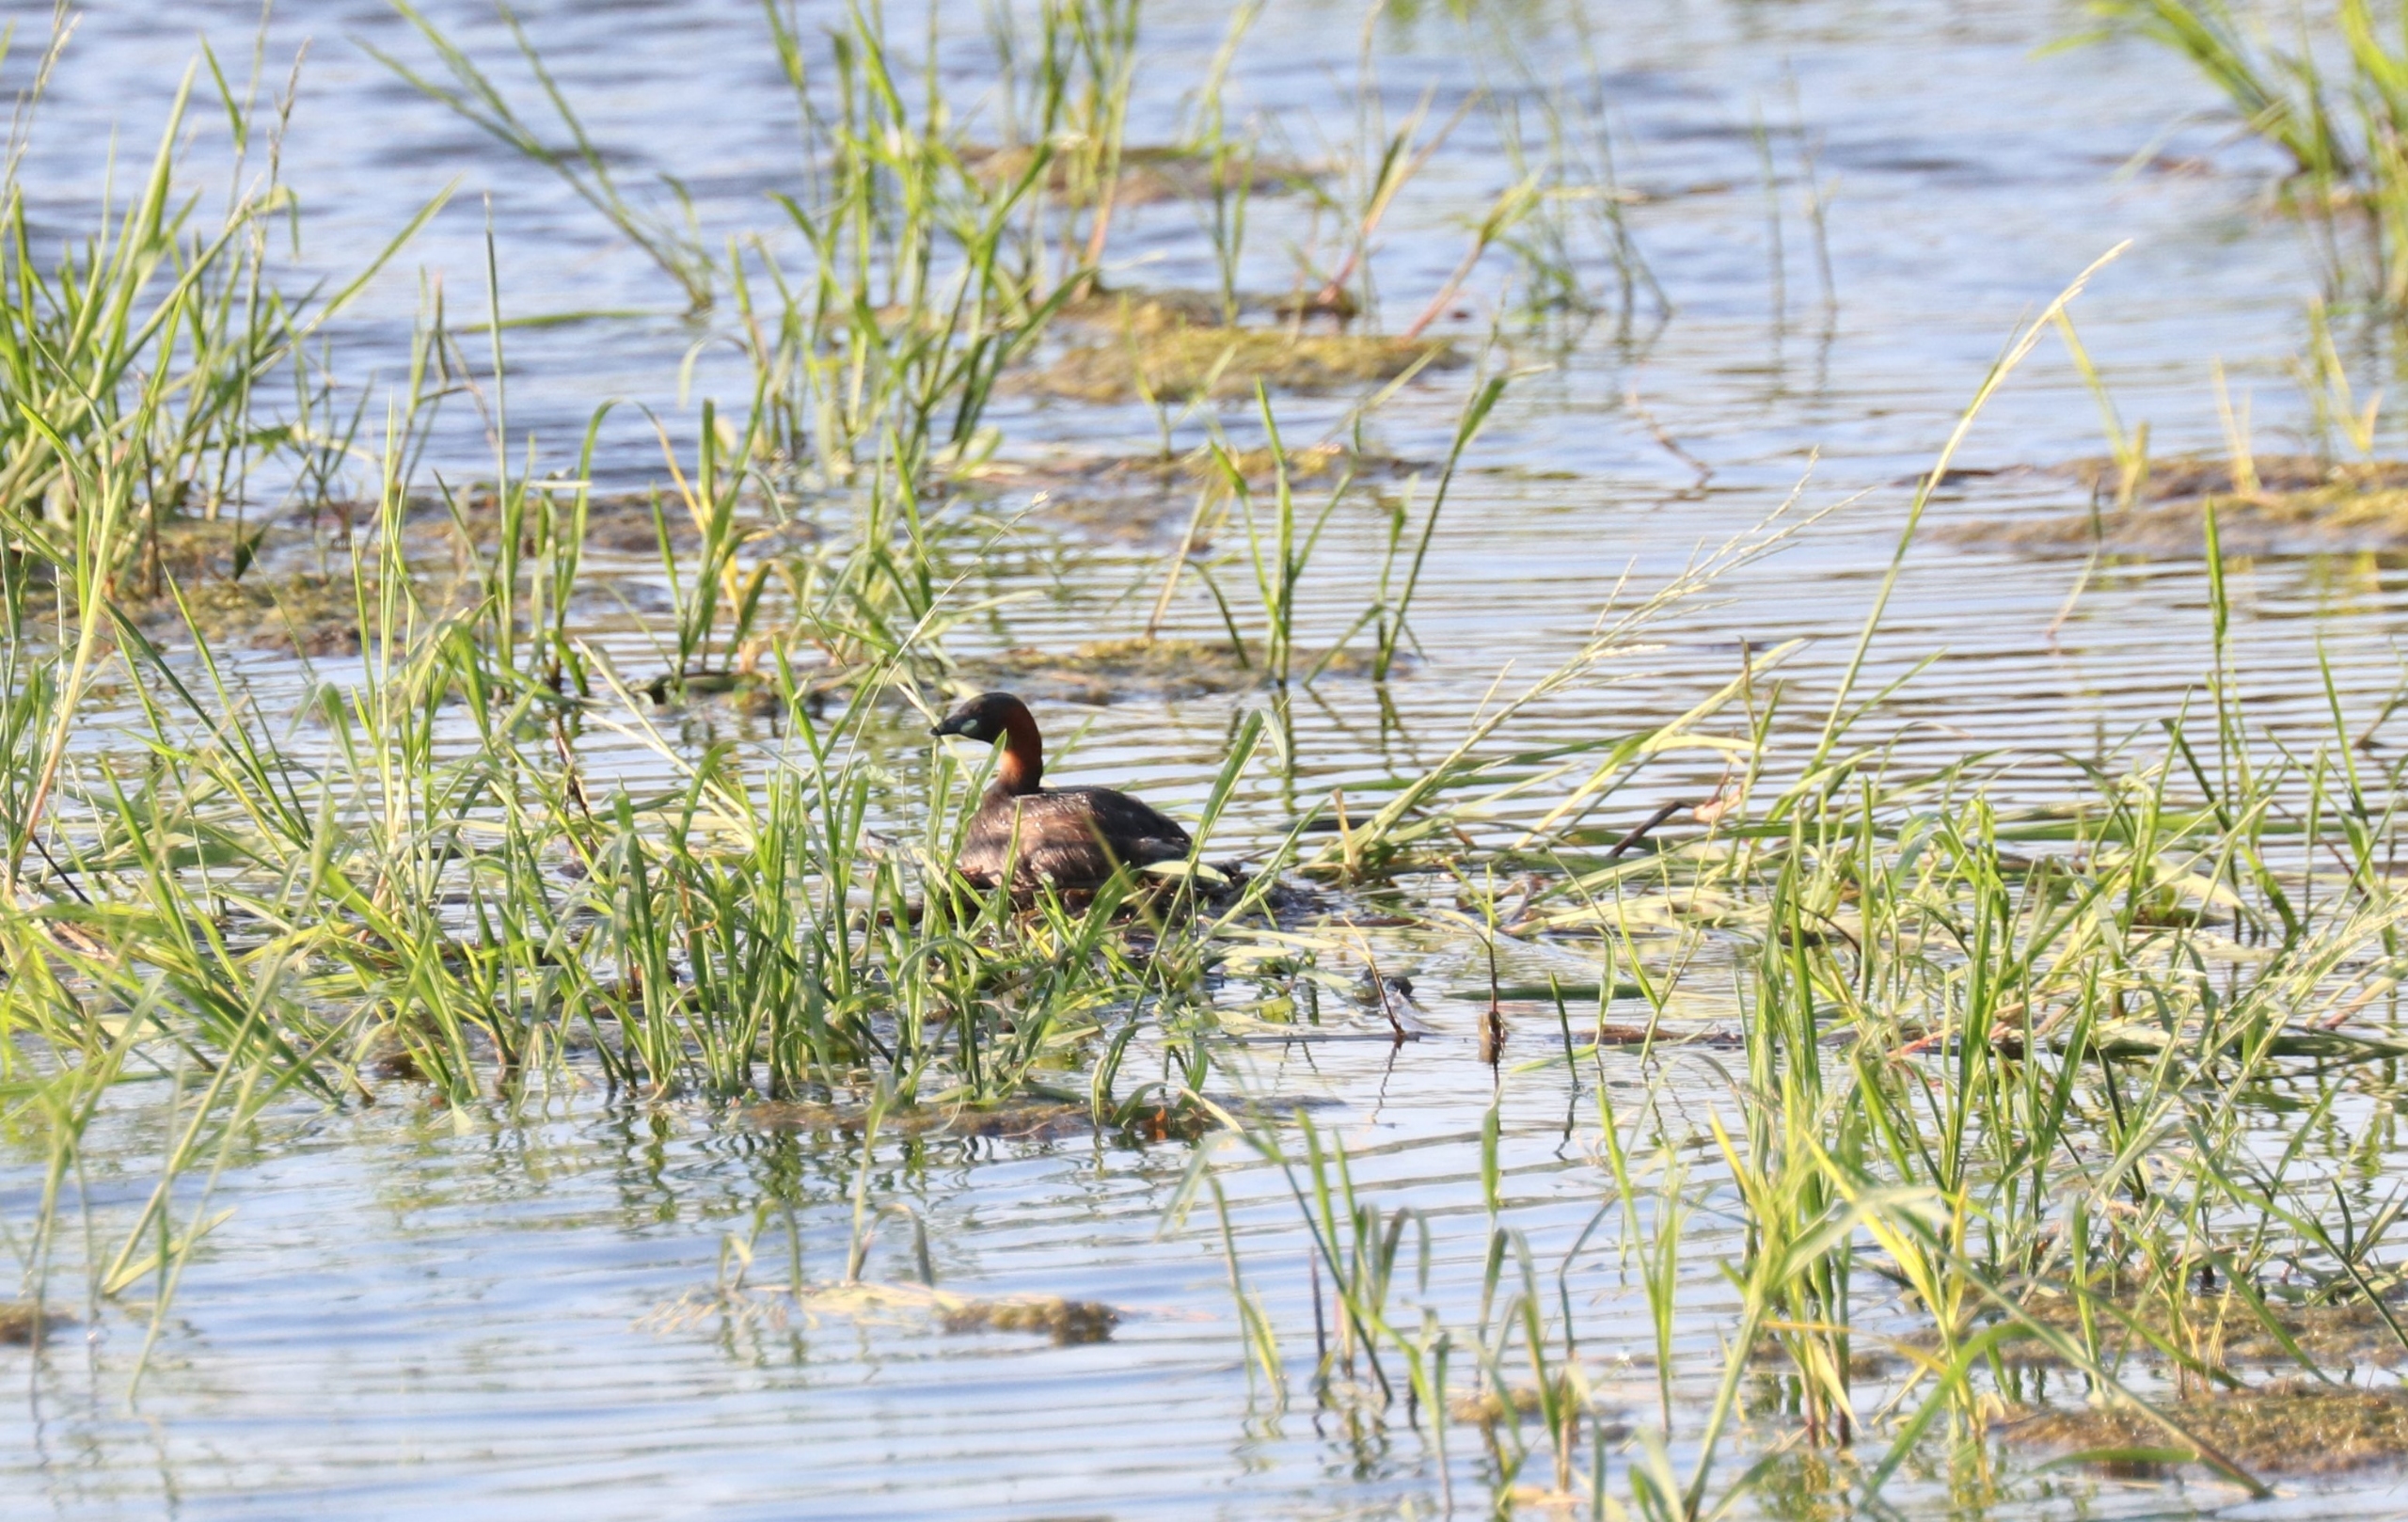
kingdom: Animalia
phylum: Chordata
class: Aves
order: Podicipediformes
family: Podicipedidae
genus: Tachybaptus
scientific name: Tachybaptus ruficollis
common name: Lille lappedykker
